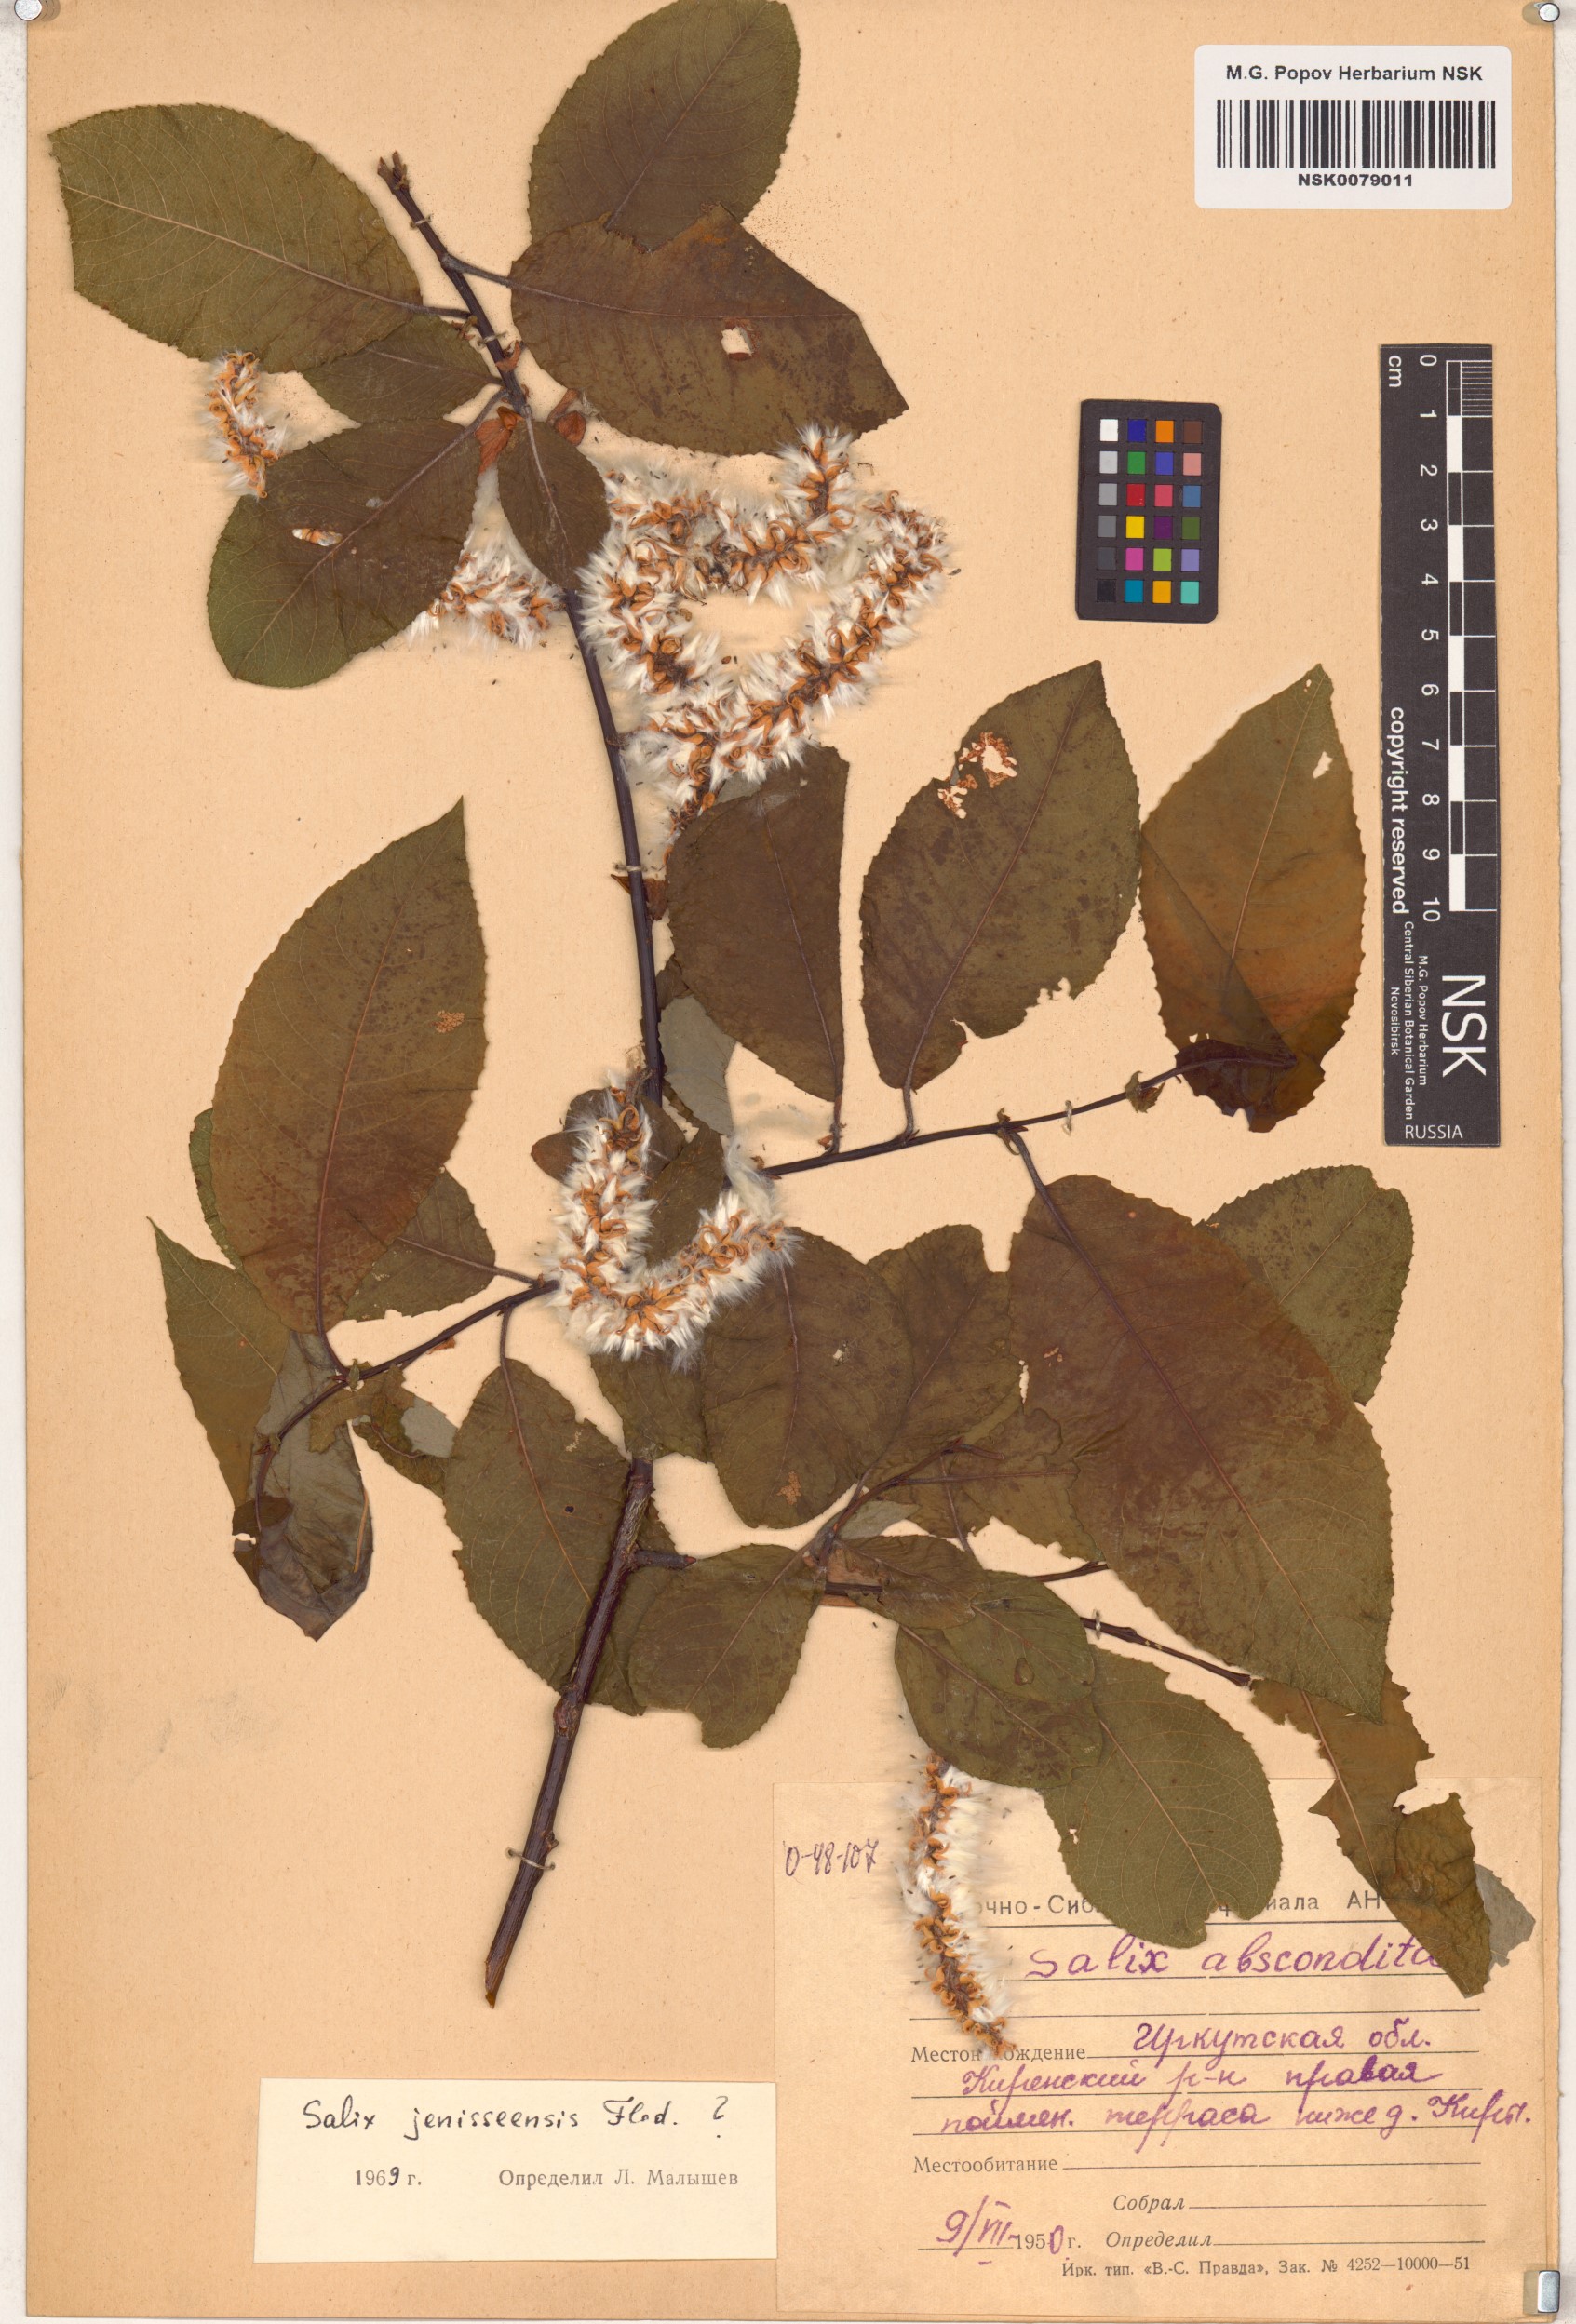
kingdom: Plantae
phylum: Tracheophyta
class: Magnoliopsida
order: Malpighiales
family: Salicaceae
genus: Salix
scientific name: Salix jenisseensis
